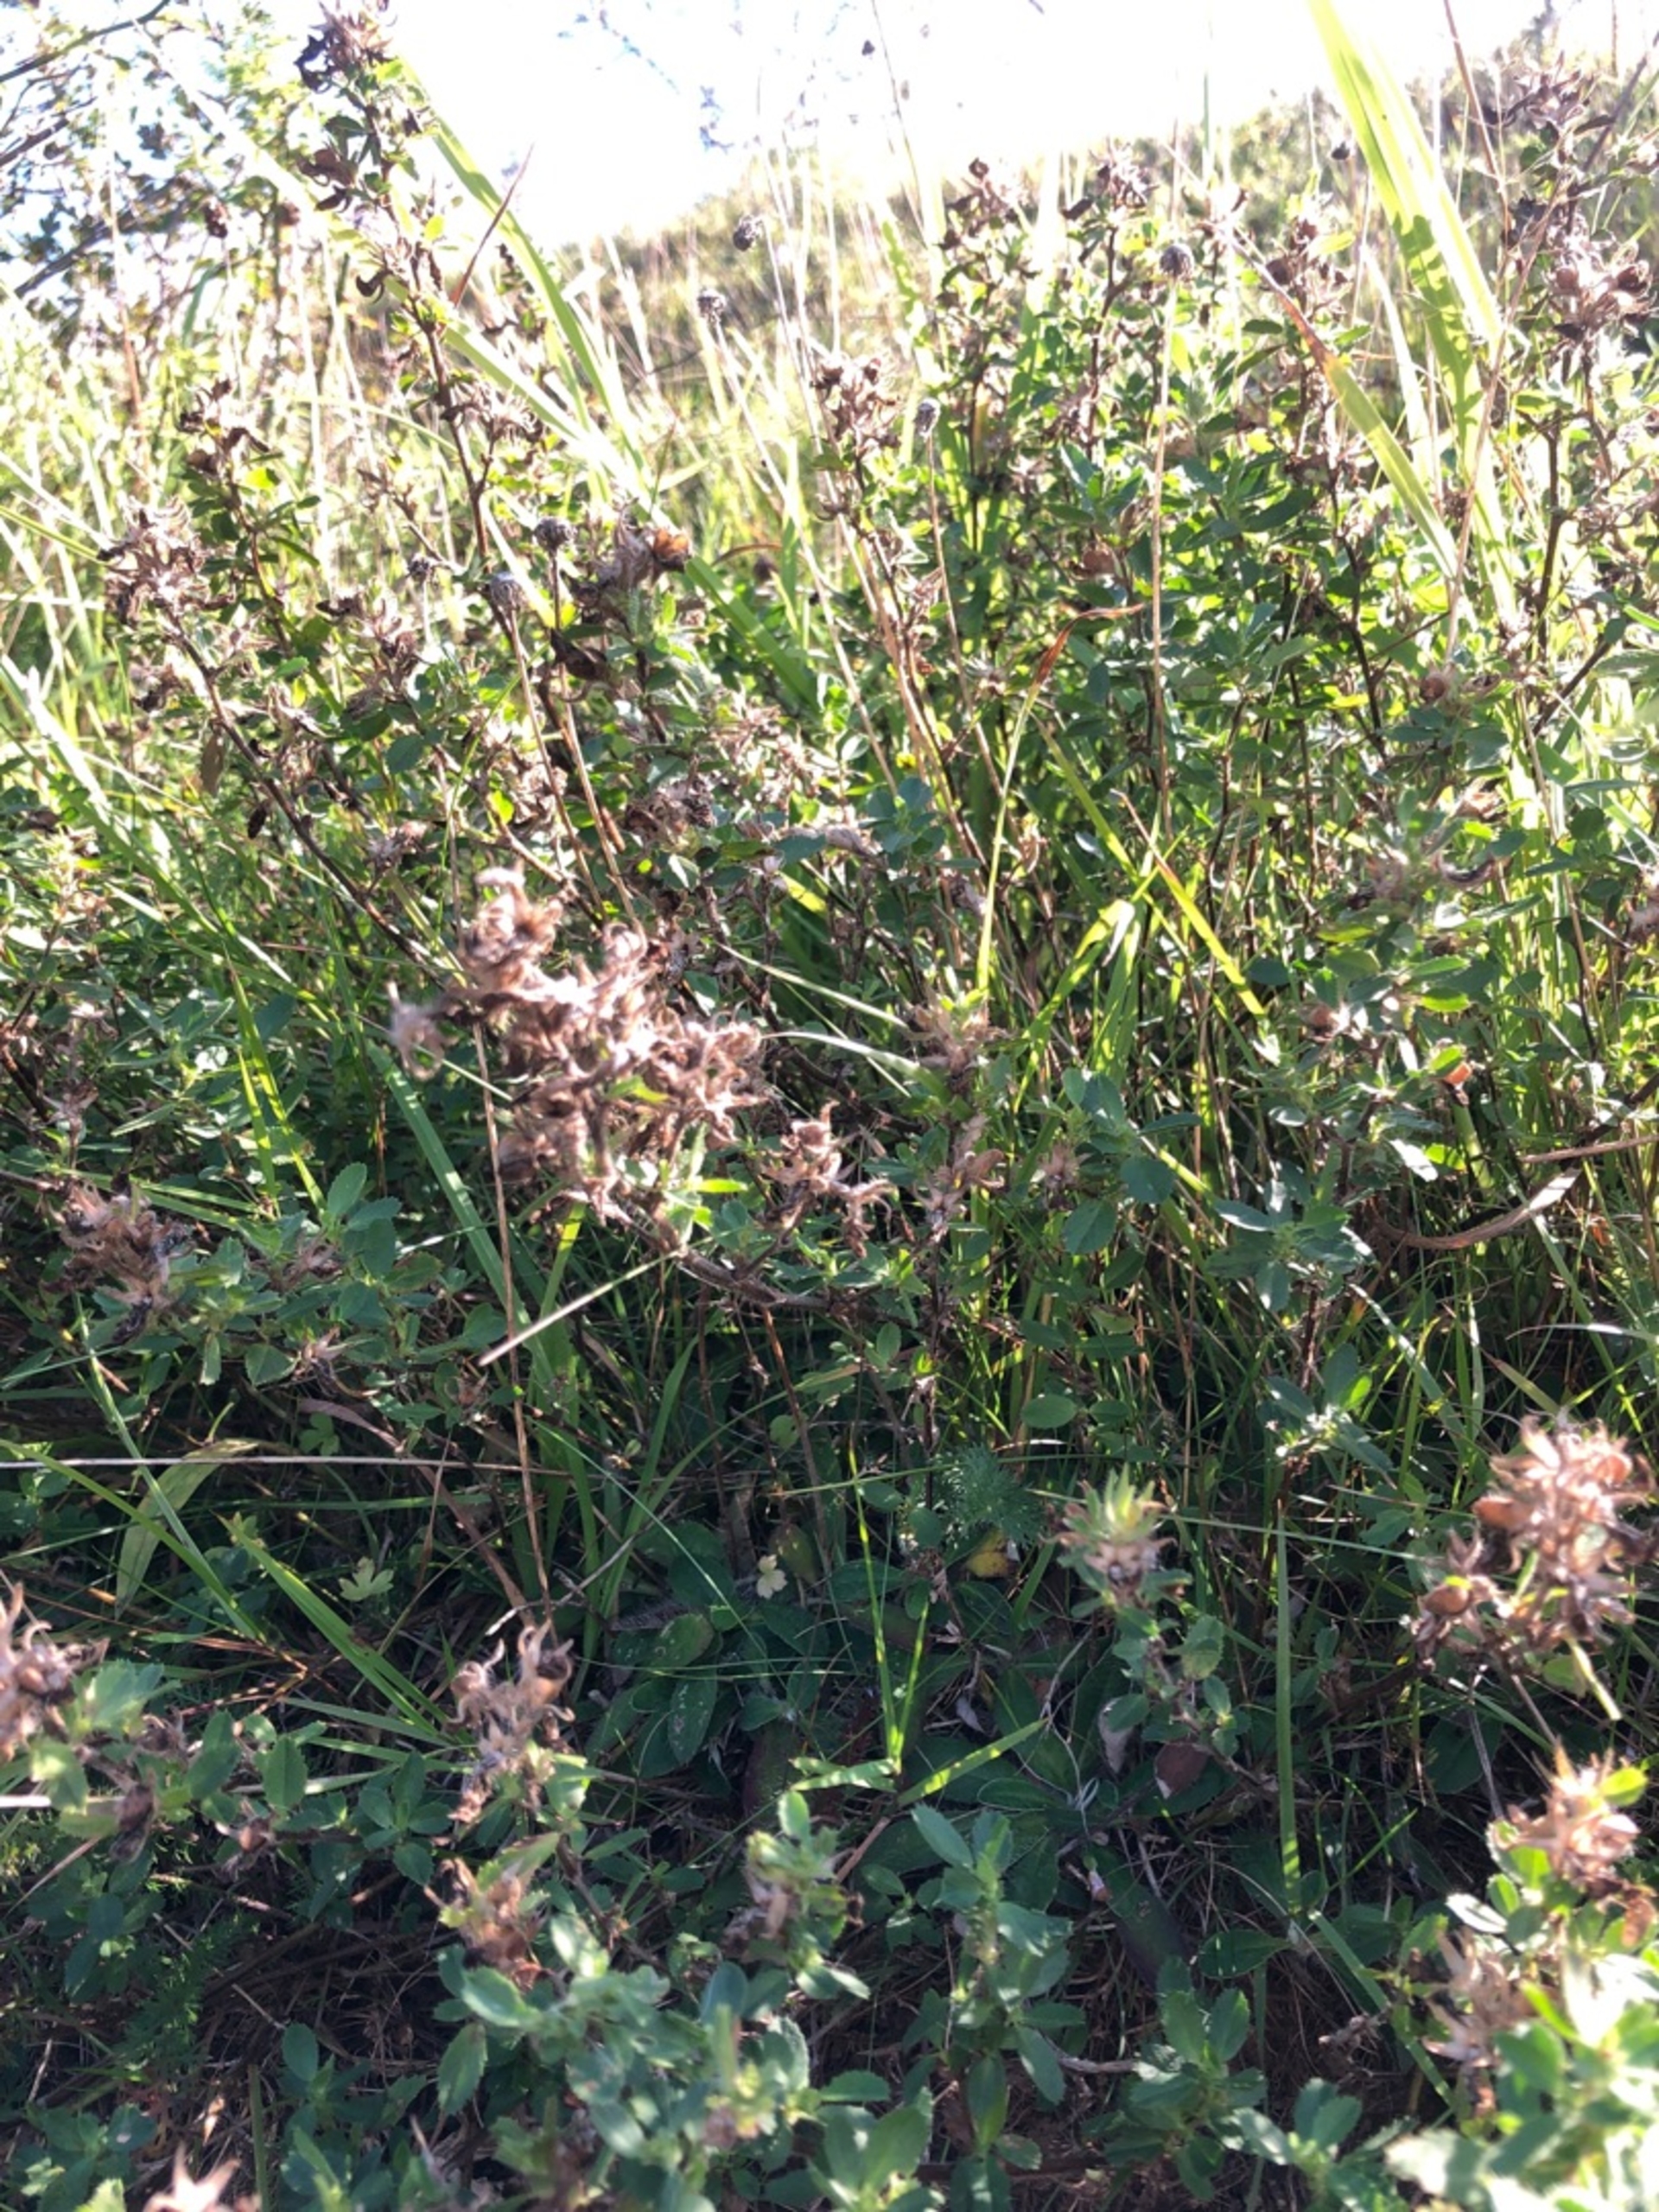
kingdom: Plantae
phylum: Tracheophyta
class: Magnoliopsida
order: Fabales
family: Fabaceae
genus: Ononis
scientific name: Ononis spinosa
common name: Krageklo
